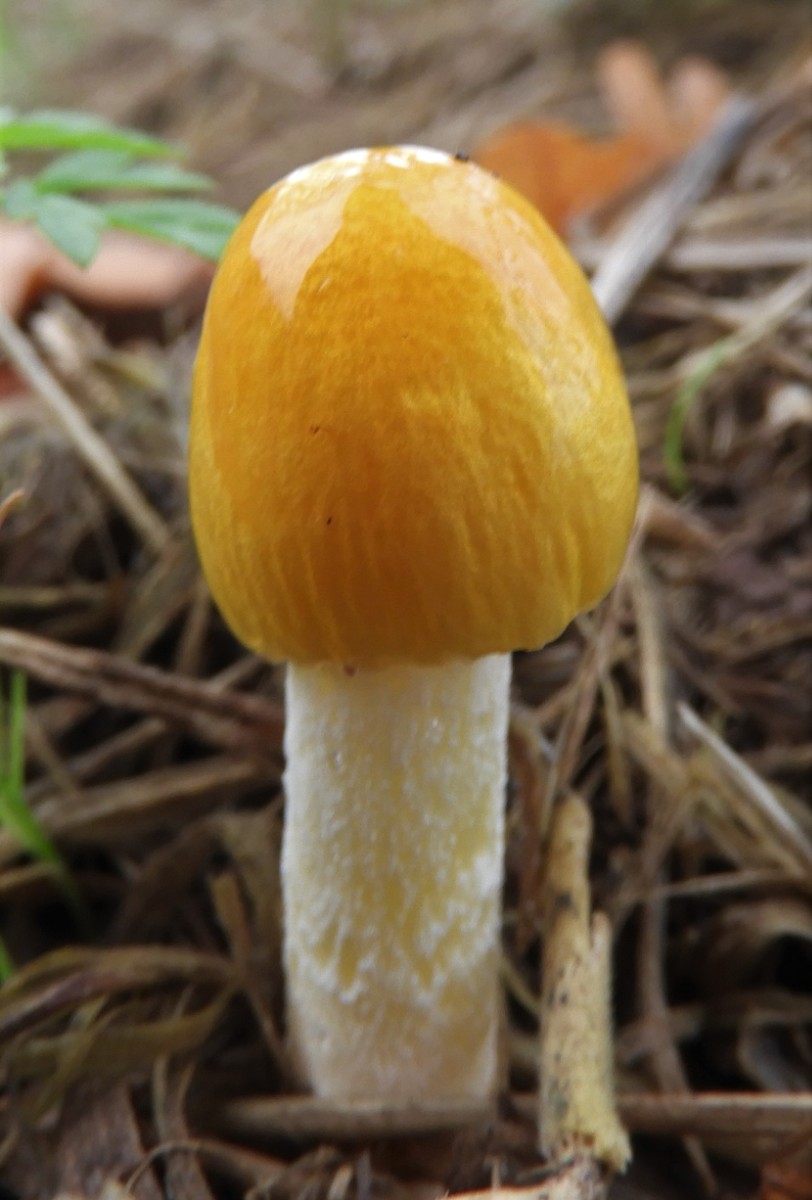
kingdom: Fungi
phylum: Basidiomycota
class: Agaricomycetes
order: Agaricales
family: Bolbitiaceae
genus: Bolbitius
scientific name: Bolbitius titubans
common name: almindelig gulhat
